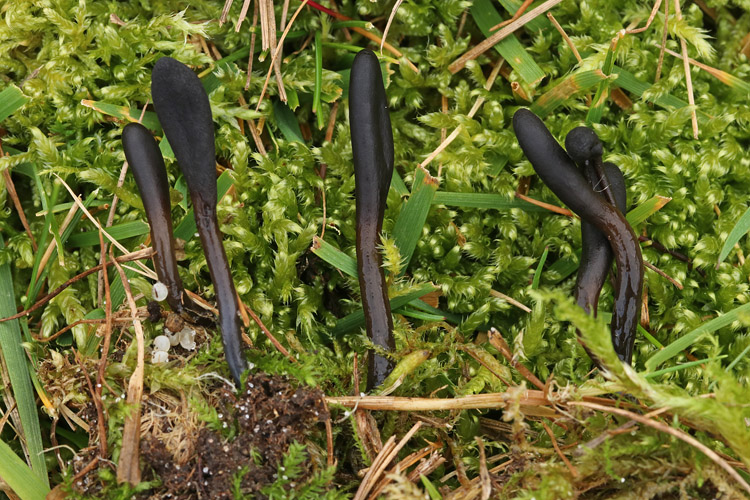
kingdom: Fungi
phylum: Ascomycota
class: Geoglossomycetes
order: Geoglossales
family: Geoglossaceae
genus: Glutinoglossum
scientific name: Glutinoglossum glutinosum
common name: slimet jordtunge
